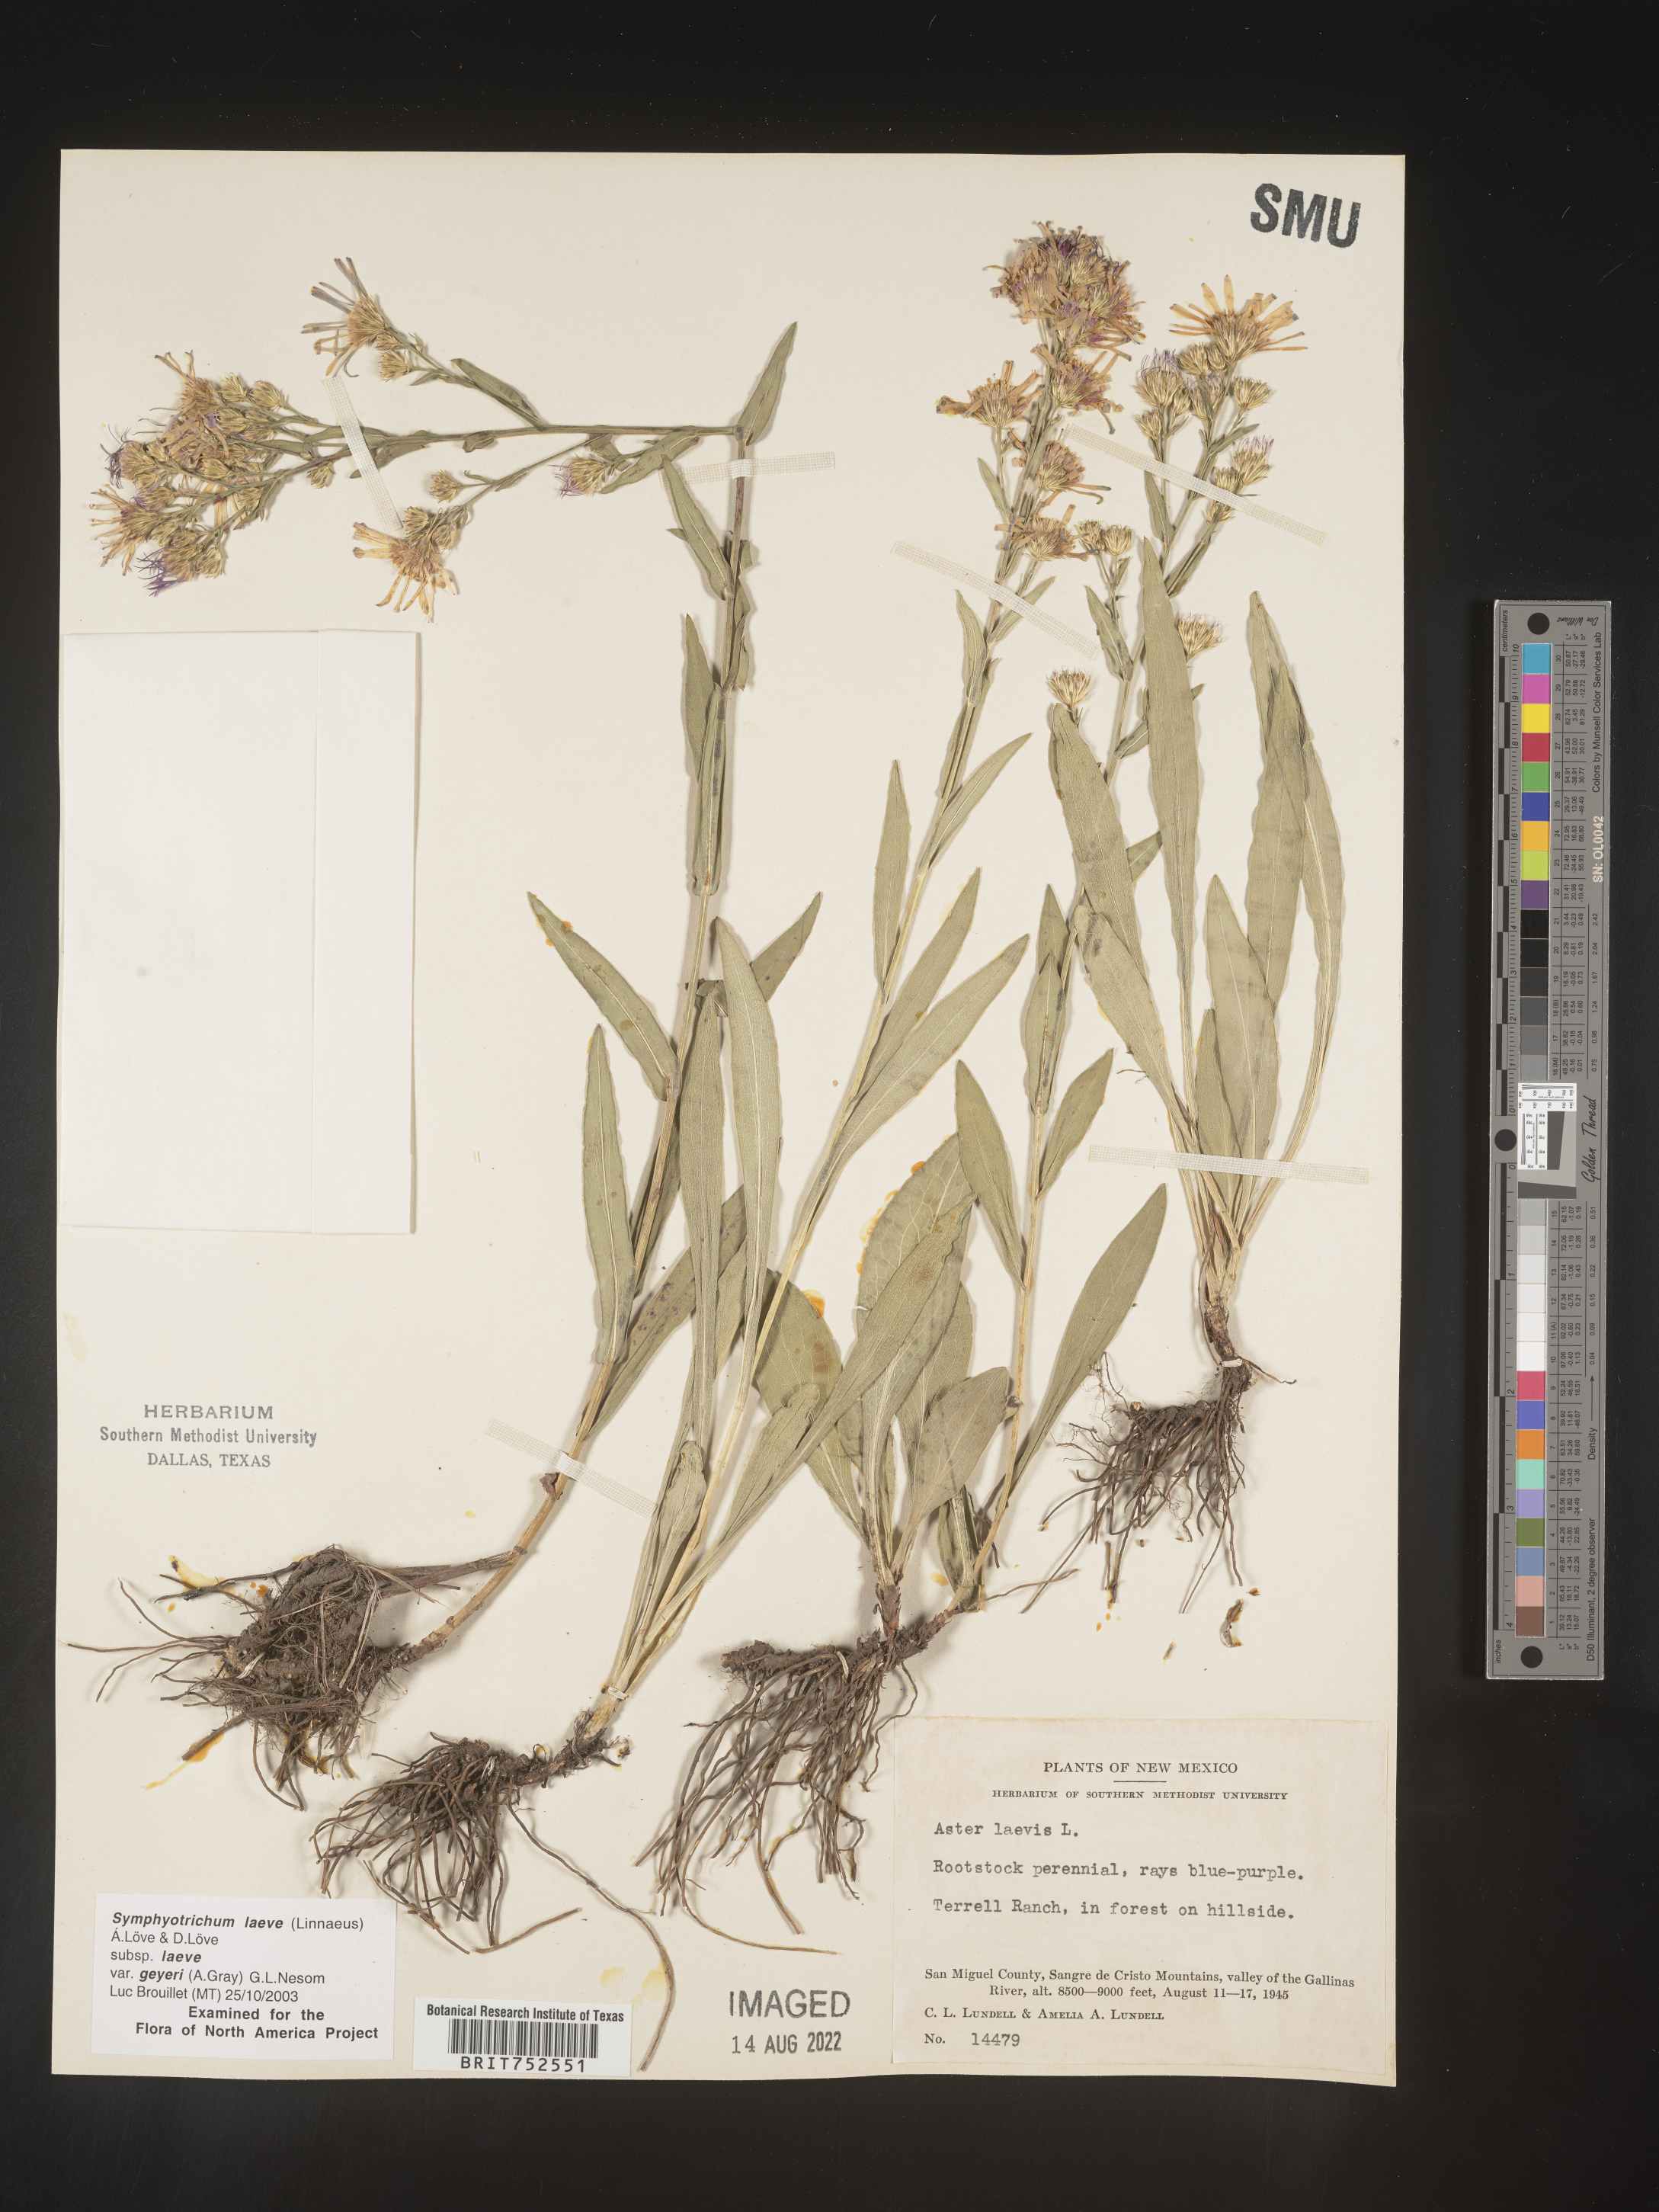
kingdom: Plantae
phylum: Tracheophyta
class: Magnoliopsida
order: Asterales
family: Asteraceae
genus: Symphyotrichum
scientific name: Symphyotrichum laeve
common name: Glaucous aster
